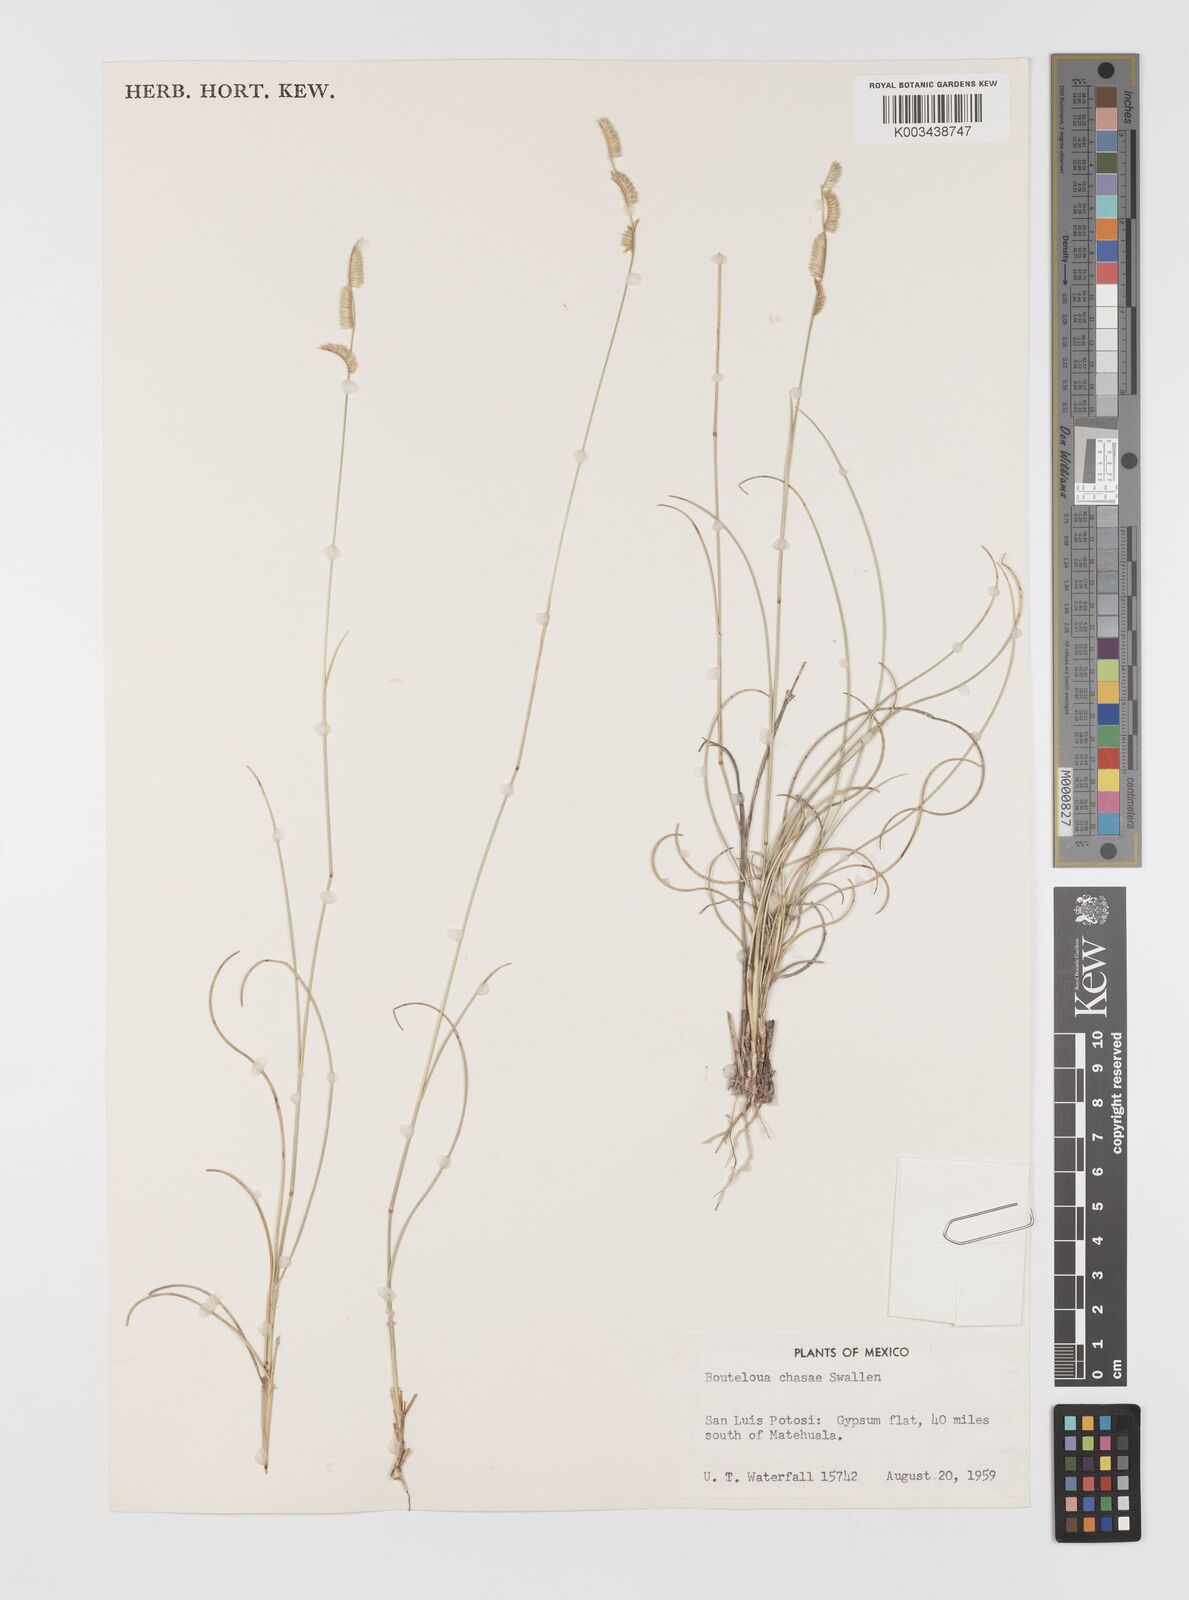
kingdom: Plantae
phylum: Tracheophyta
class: Liliopsida
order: Poales
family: Poaceae
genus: Bouteloua
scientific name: Bouteloua chasei
